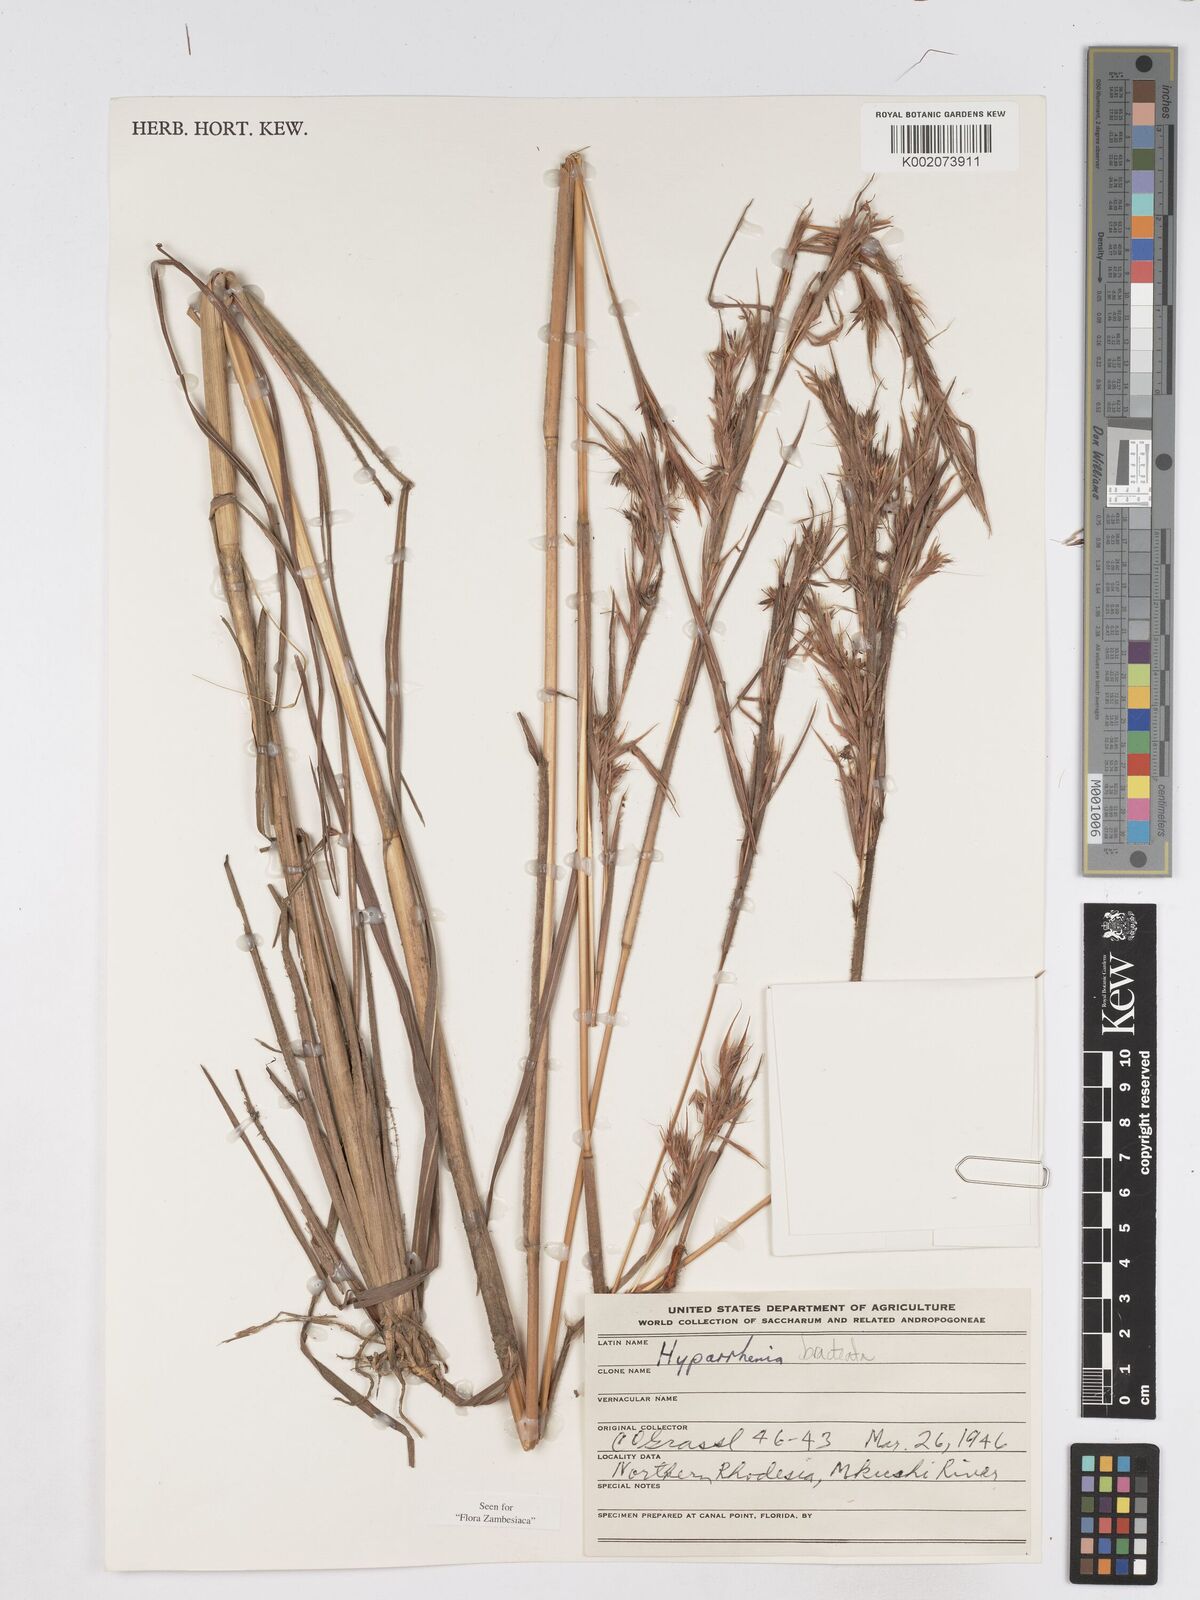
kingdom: Plantae
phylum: Tracheophyta
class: Liliopsida
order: Poales
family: Poaceae
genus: Hyparrhenia
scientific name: Hyparrhenia bracteata
